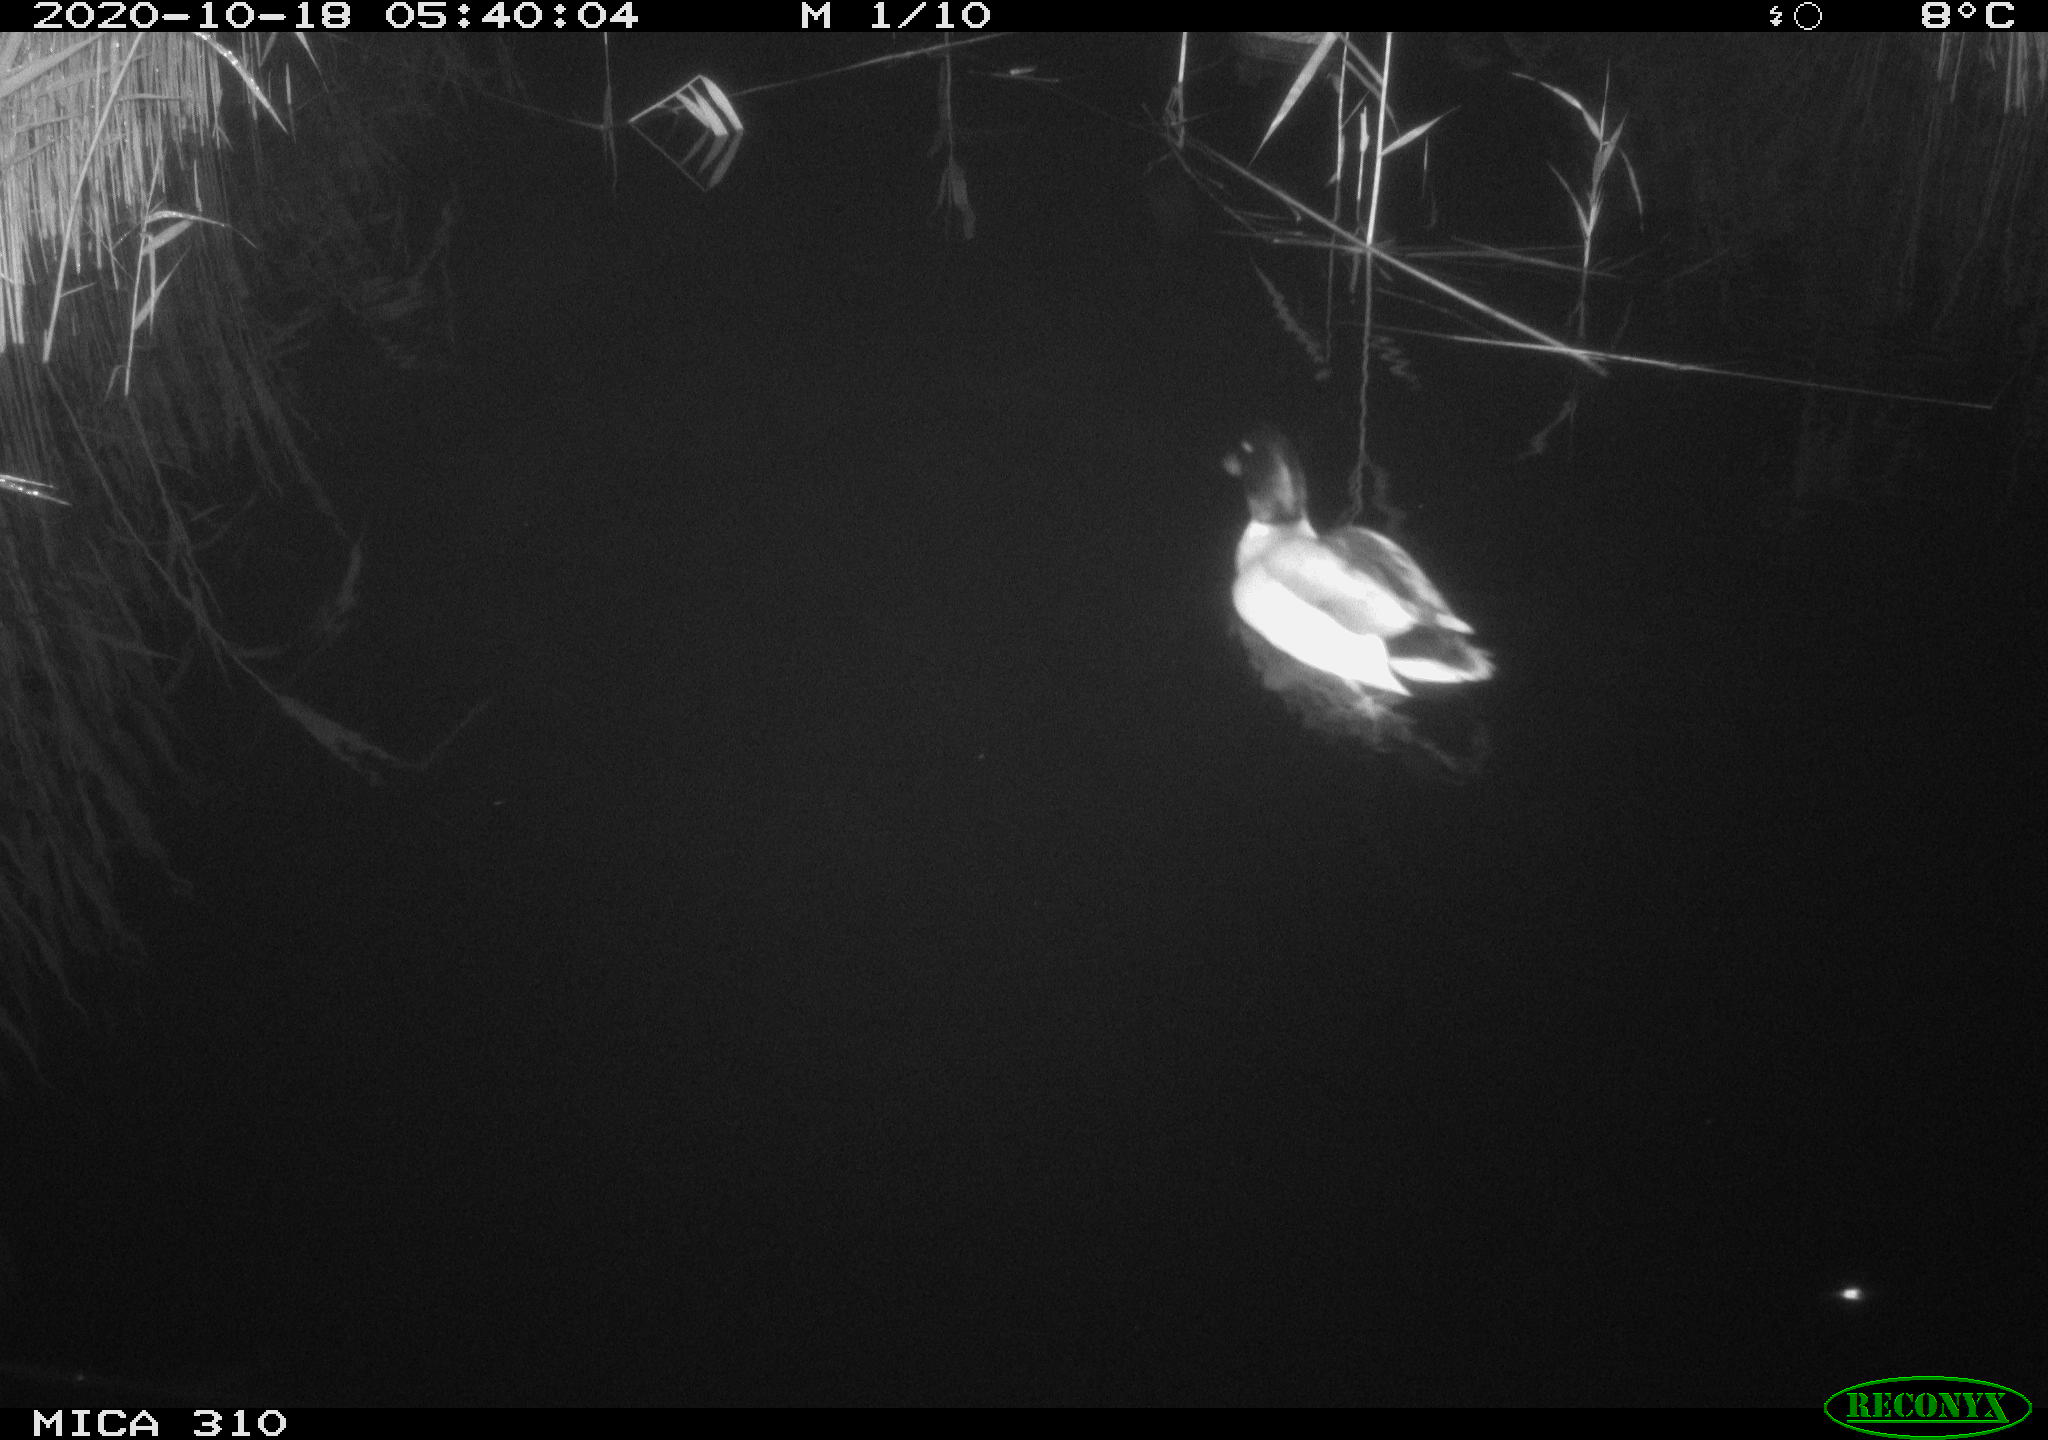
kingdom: Animalia
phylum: Chordata
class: Aves
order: Anseriformes
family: Anatidae
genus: Anas
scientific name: Anas platyrhynchos
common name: Mallard
